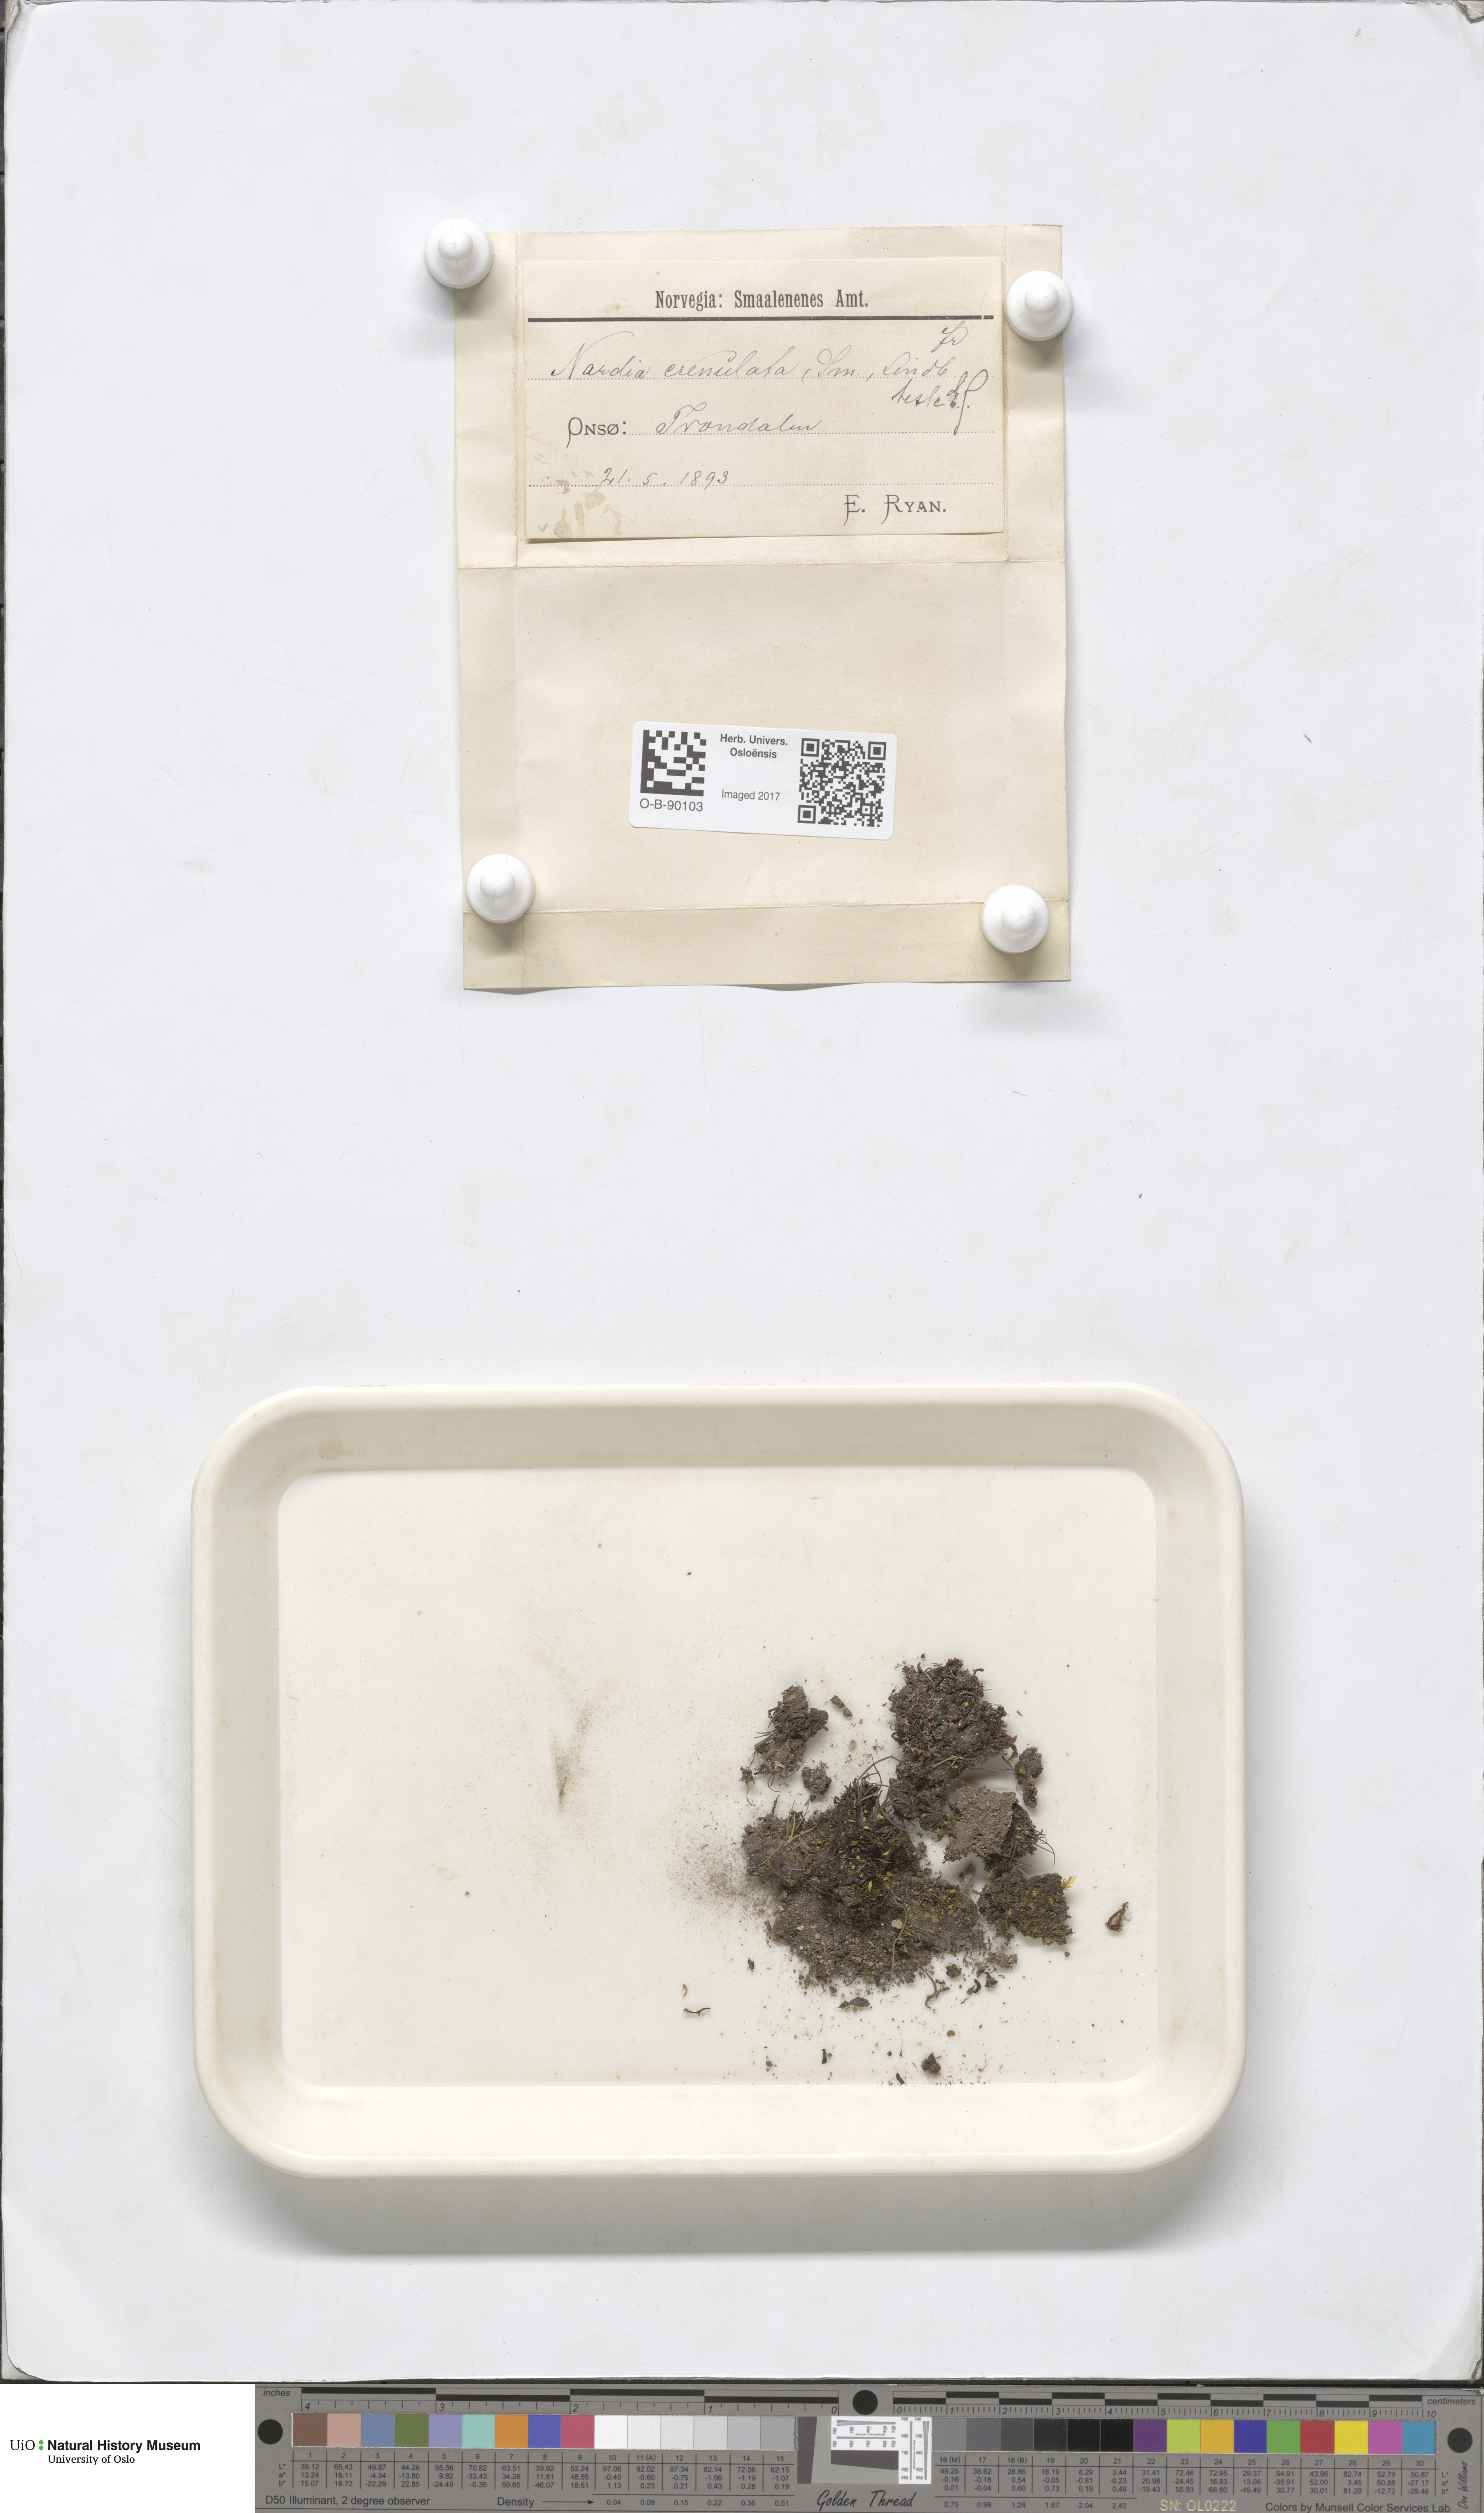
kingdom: Plantae
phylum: Marchantiophyta
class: Jungermanniopsida
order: Jungermanniales
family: Solenostomataceae
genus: Solenostoma
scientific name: Solenostoma gracillimum
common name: Crenulated flapwort
